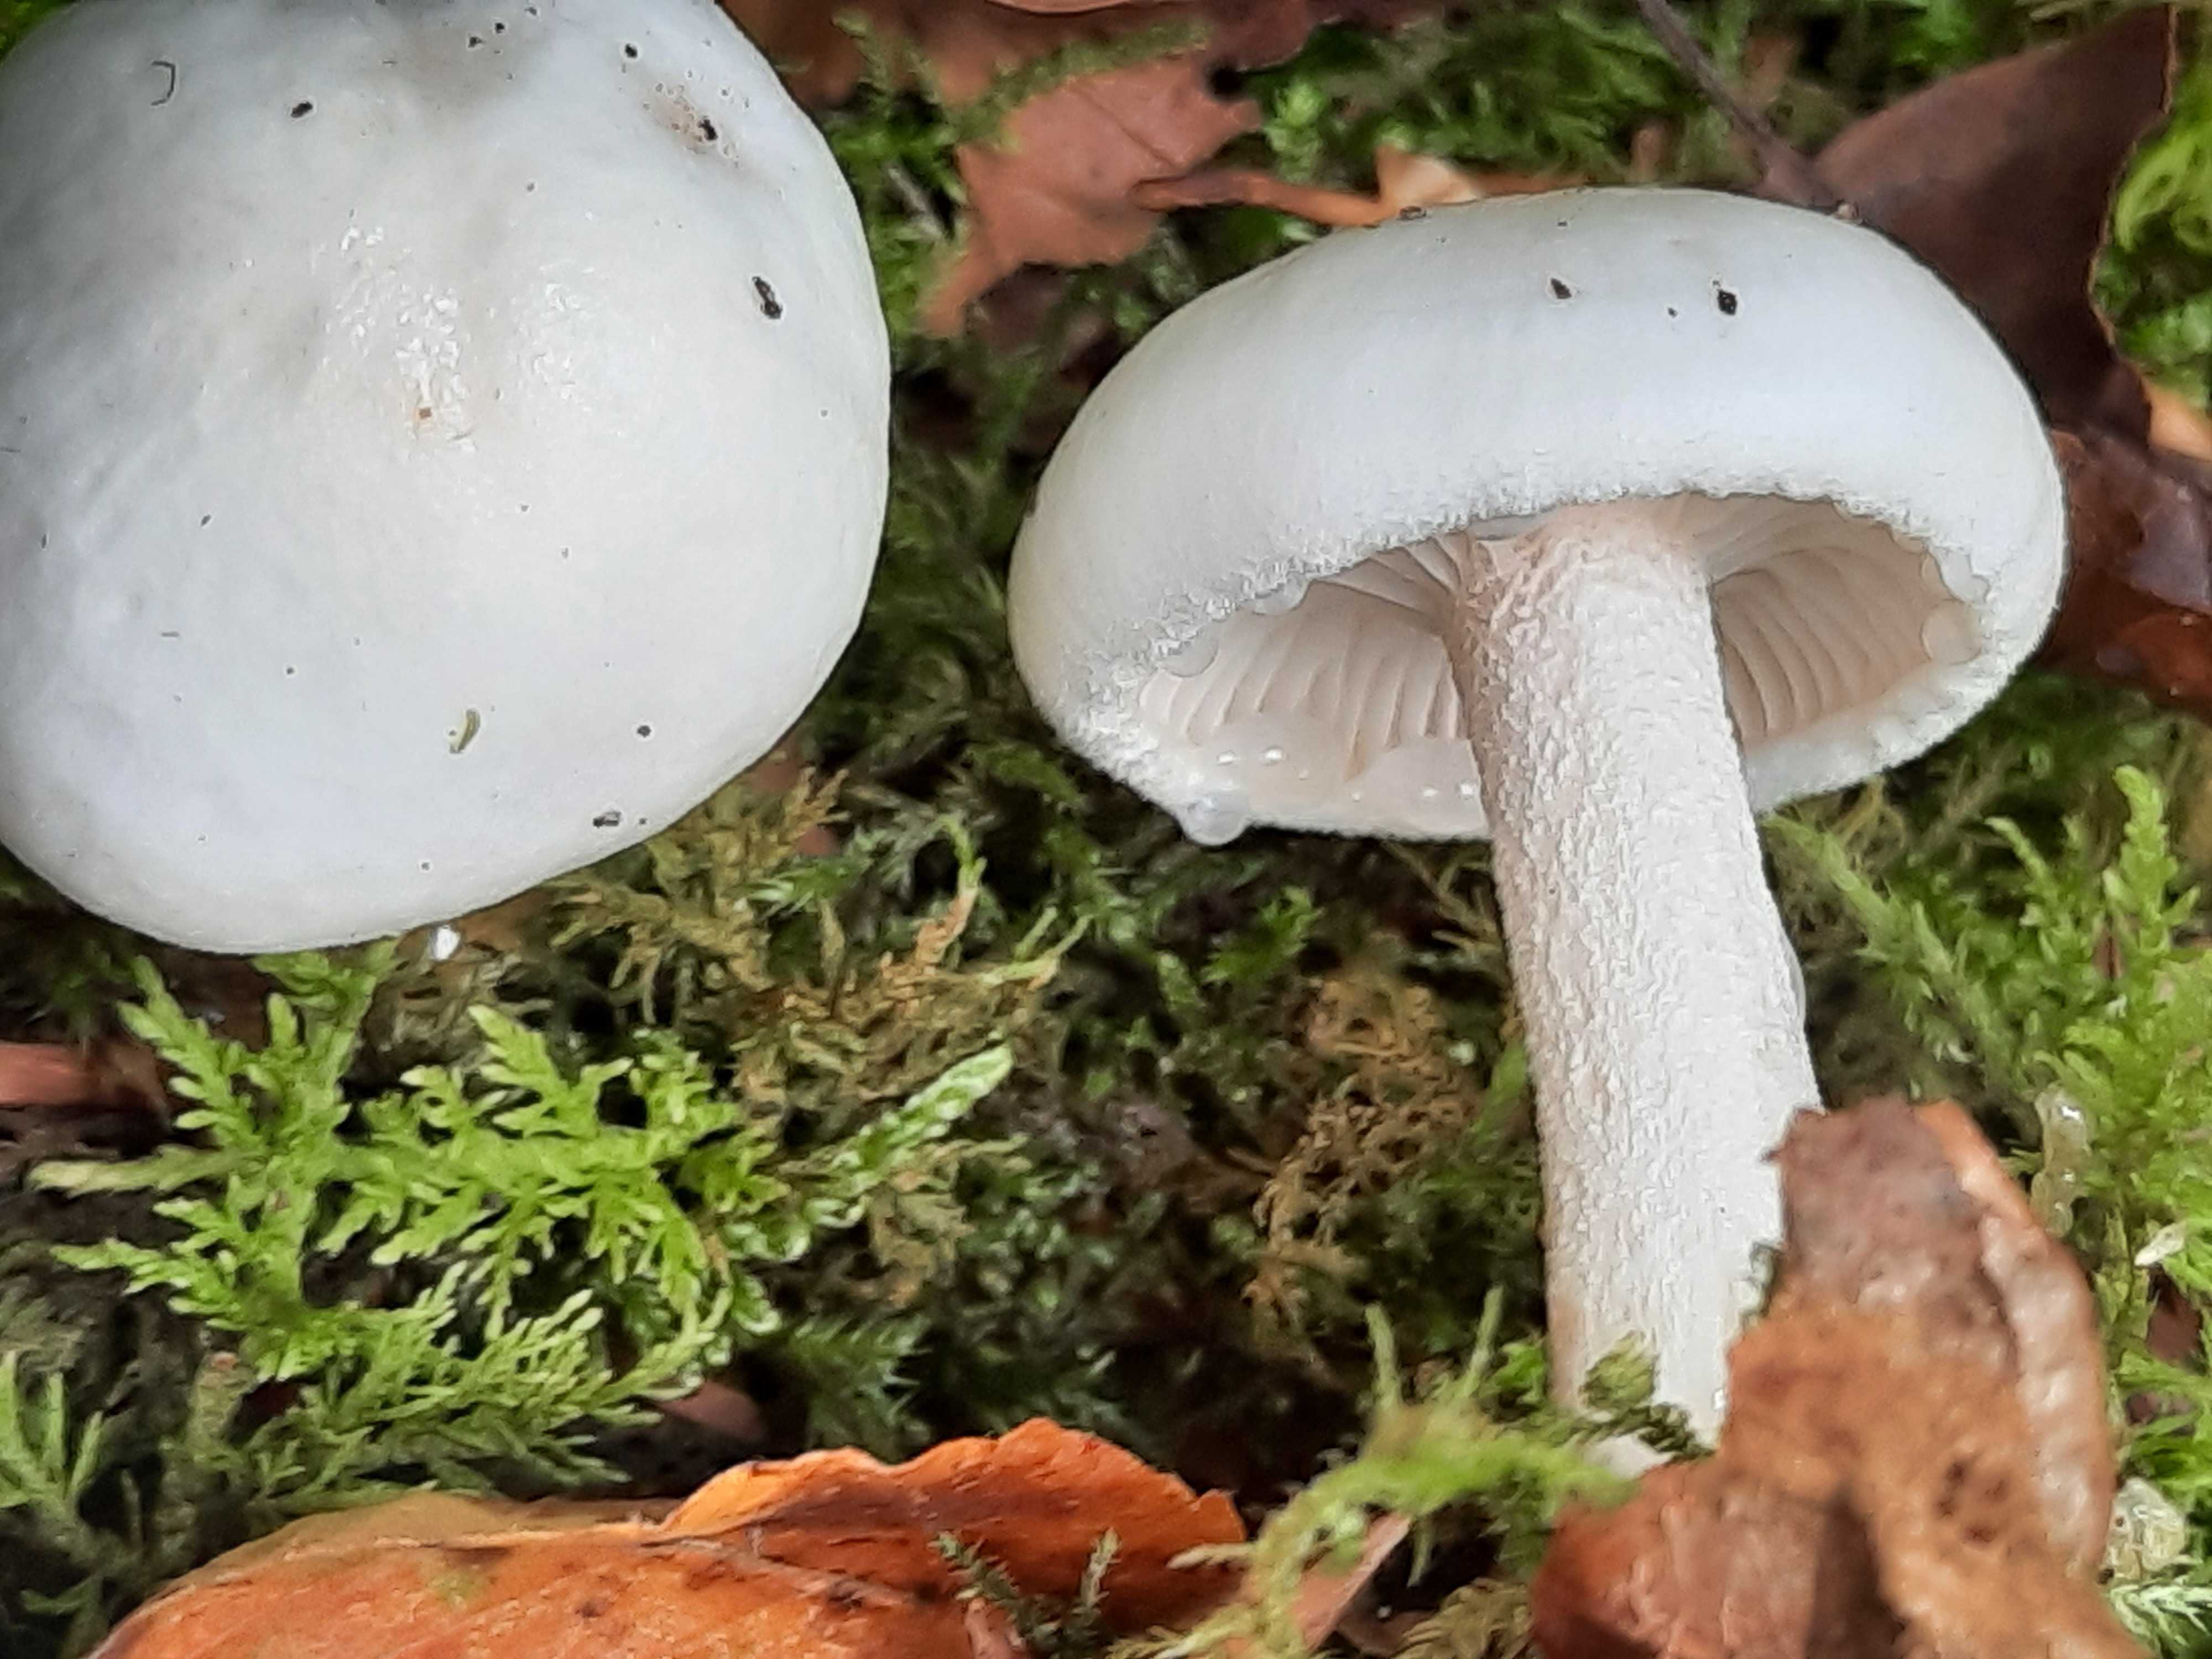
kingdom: Fungi
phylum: Basidiomycota
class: Agaricomycetes
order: Agaricales
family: Hygrophoraceae
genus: Hygrophorus
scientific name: Hygrophorus eburneus
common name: elfenbens-sneglehat
